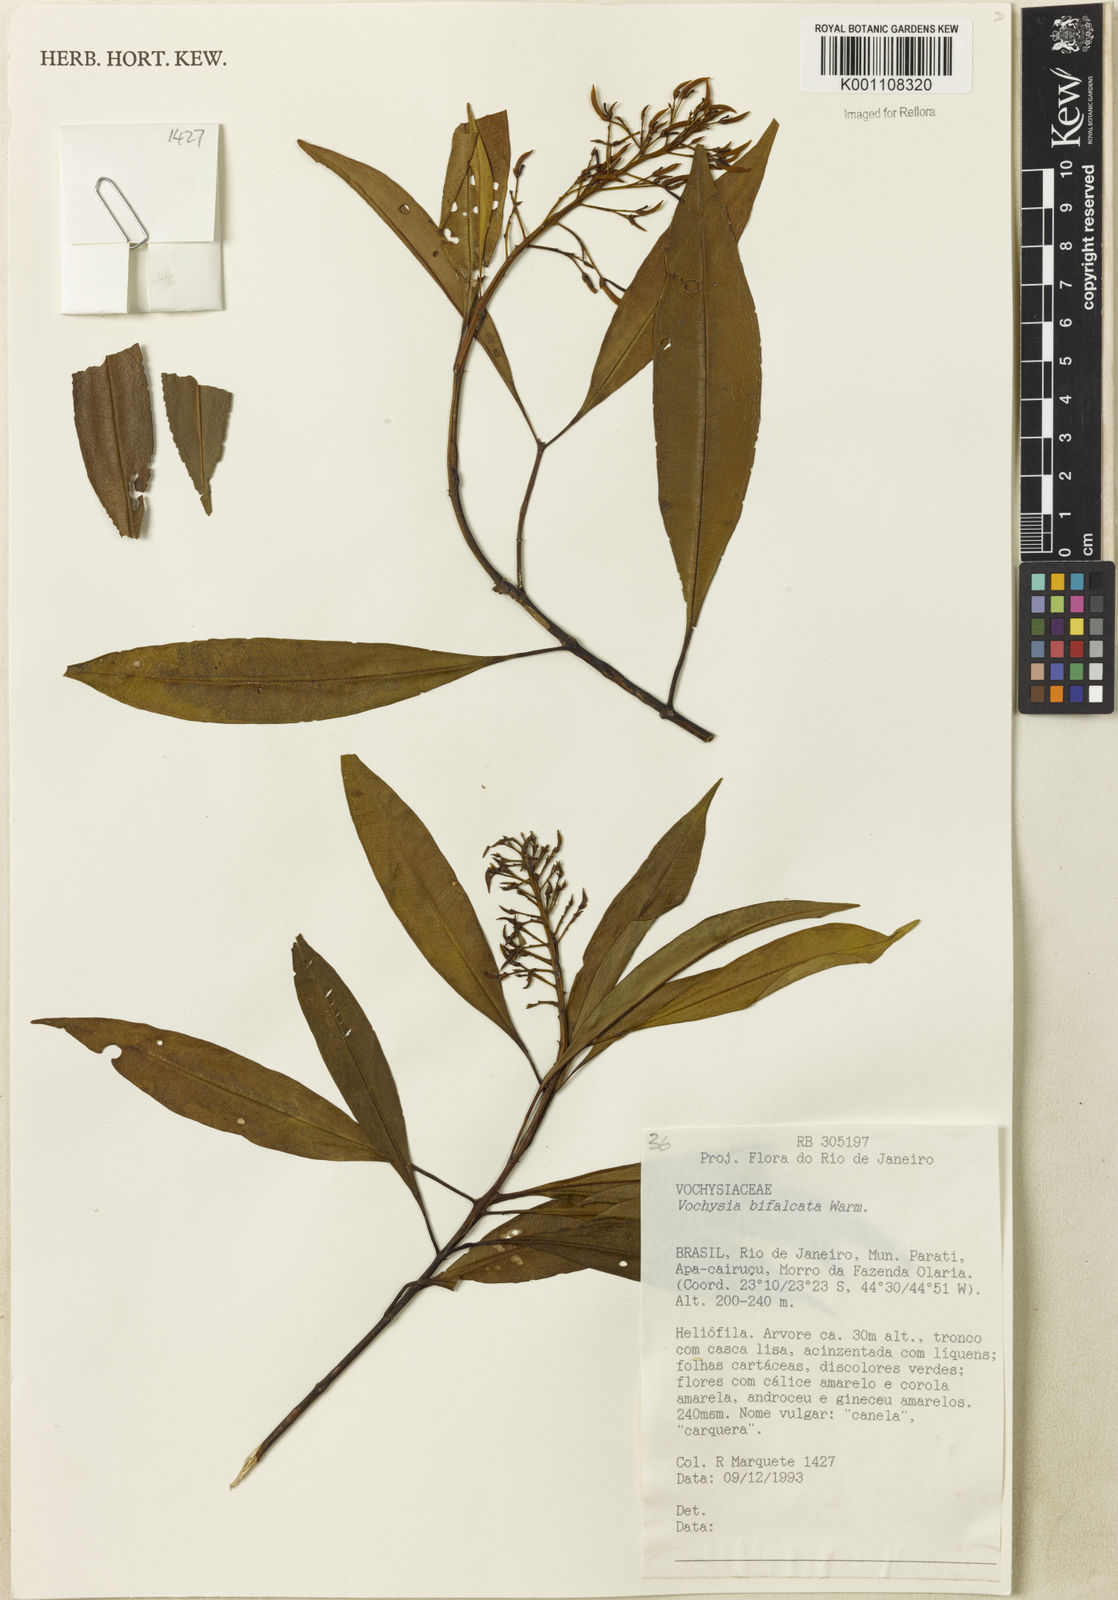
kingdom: Plantae
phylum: Tracheophyta
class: Magnoliopsida
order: Myrtales
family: Vochysiaceae
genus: Vochysia
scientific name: Vochysia bifalcata
